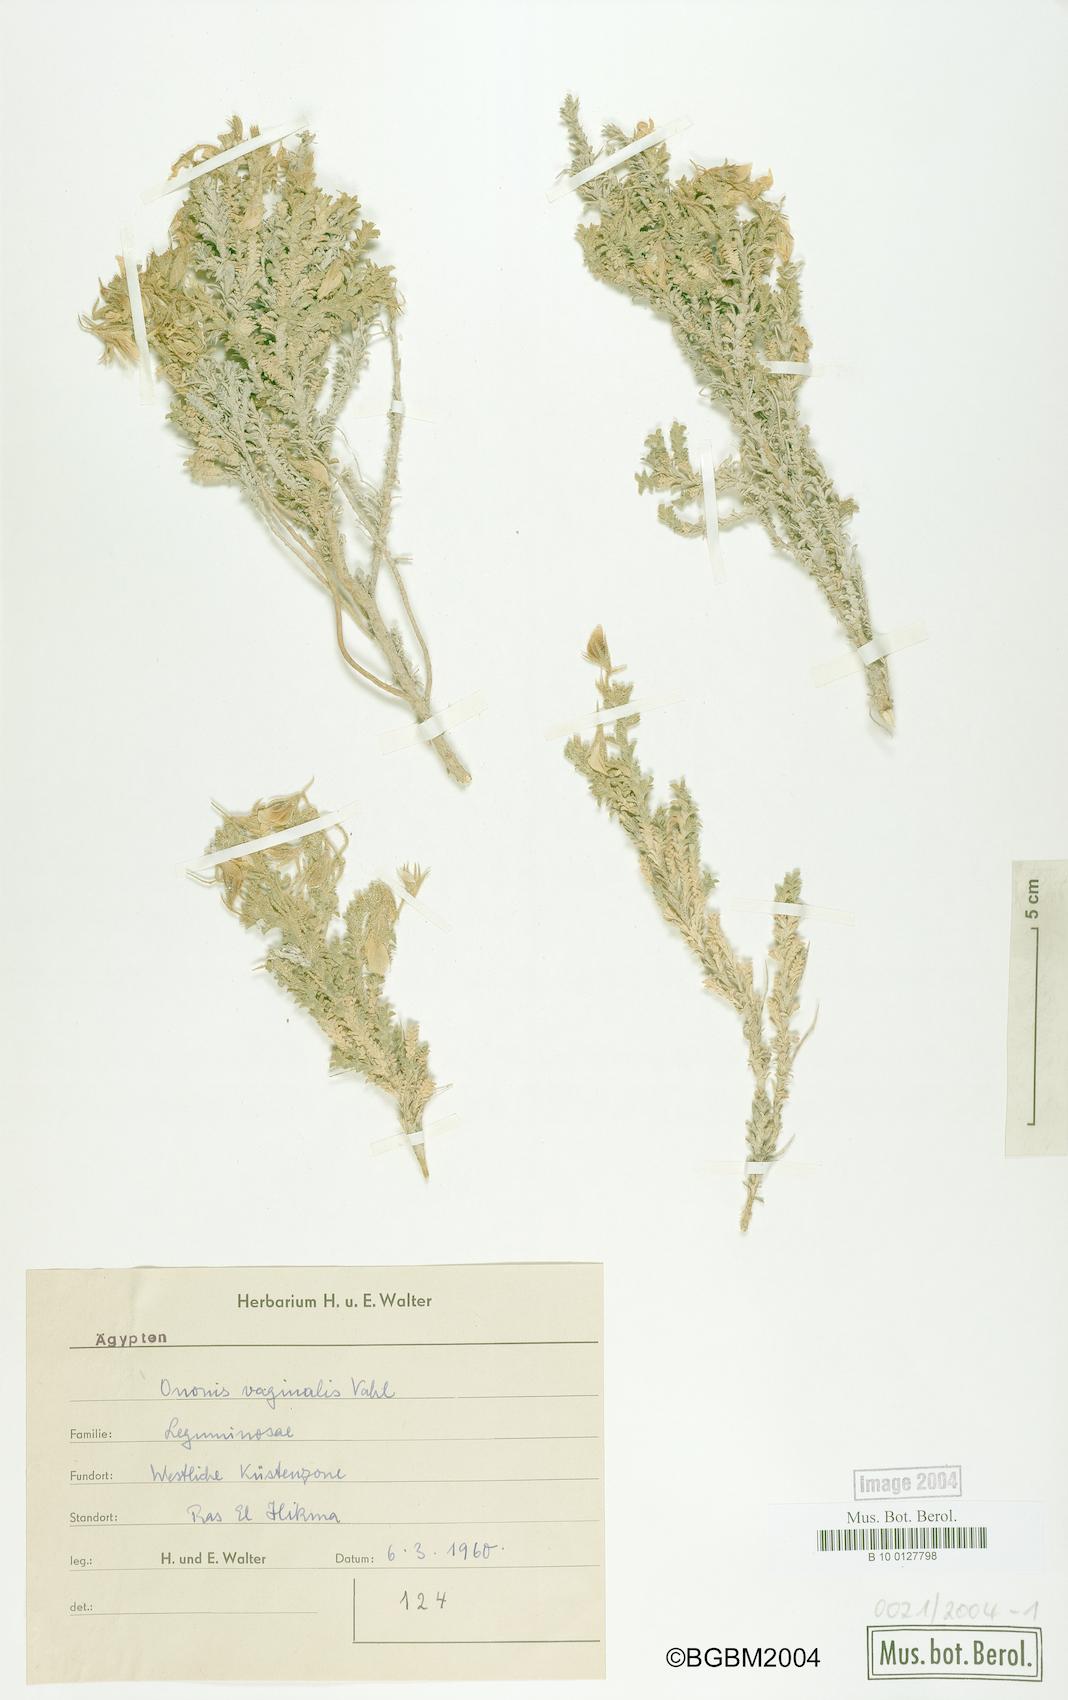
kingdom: Plantae
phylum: Tracheophyta
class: Magnoliopsida
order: Fabales
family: Fabaceae
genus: Ononis
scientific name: Ononis vaginalis
